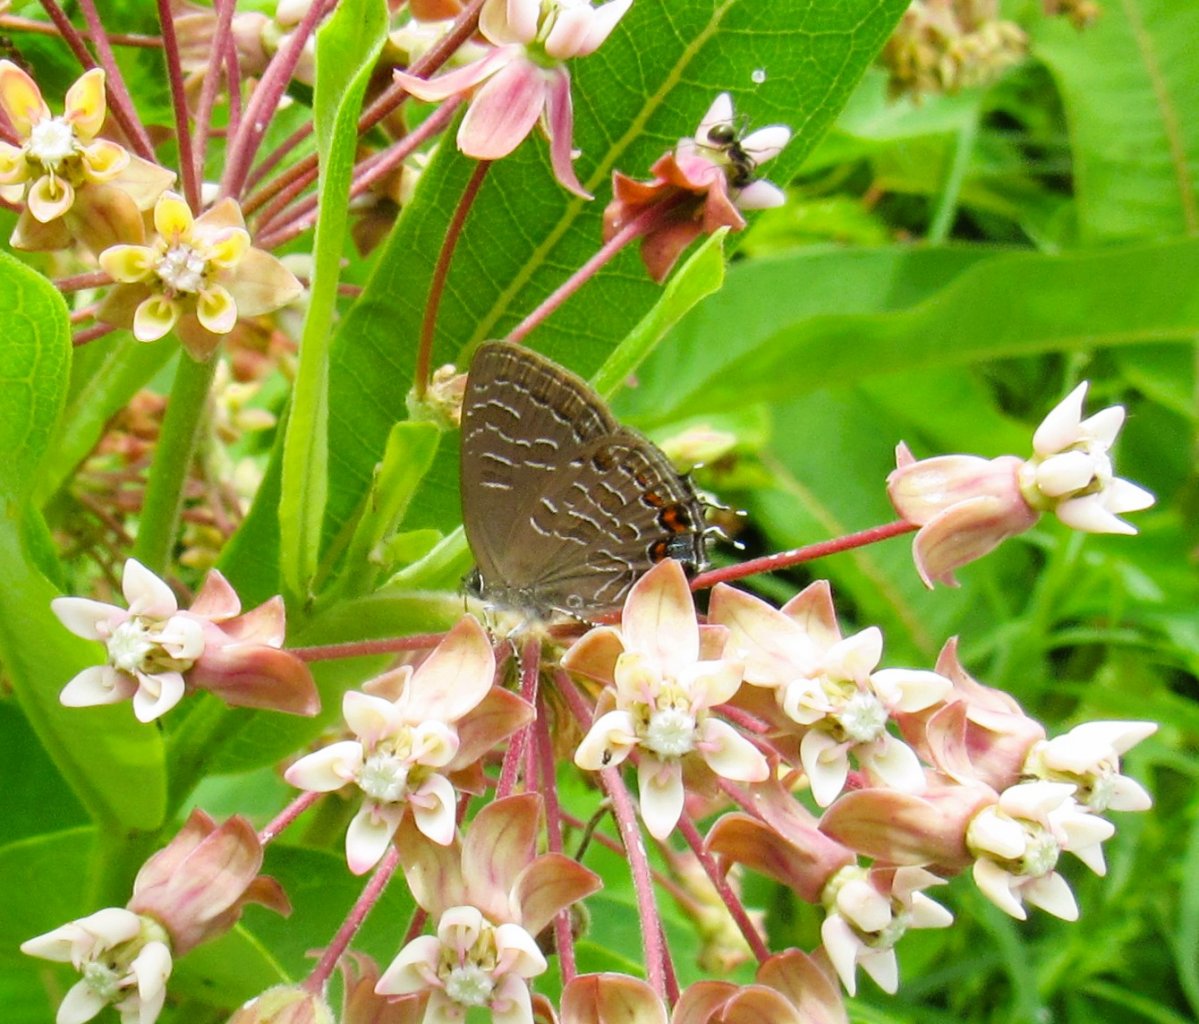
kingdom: Animalia
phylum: Arthropoda
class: Insecta
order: Lepidoptera
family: Lycaenidae
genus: Satyrium
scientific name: Satyrium liparops
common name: Striped Hairstreak
